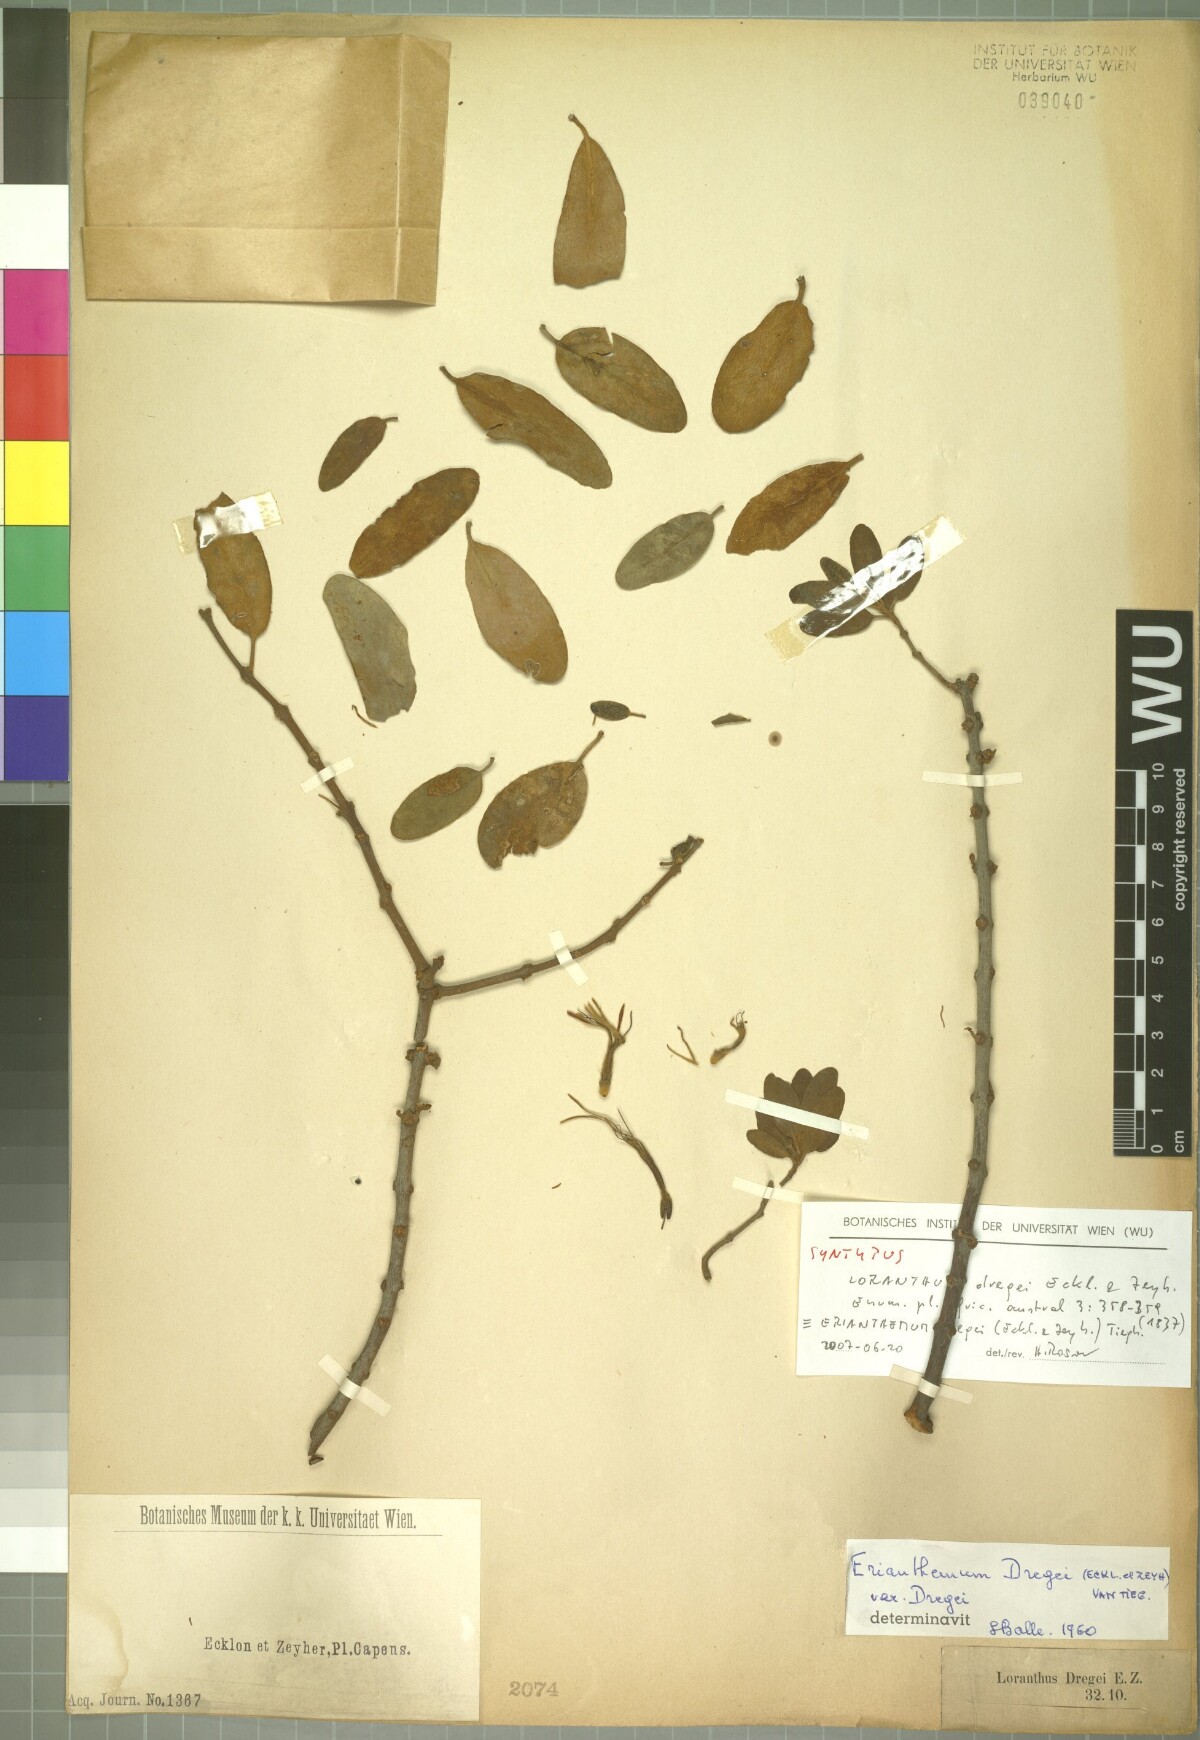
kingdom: Plantae
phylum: Tracheophyta
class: Magnoliopsida
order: Santalales
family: Loranthaceae
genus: Erianthemum
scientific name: Erianthemum dregei
